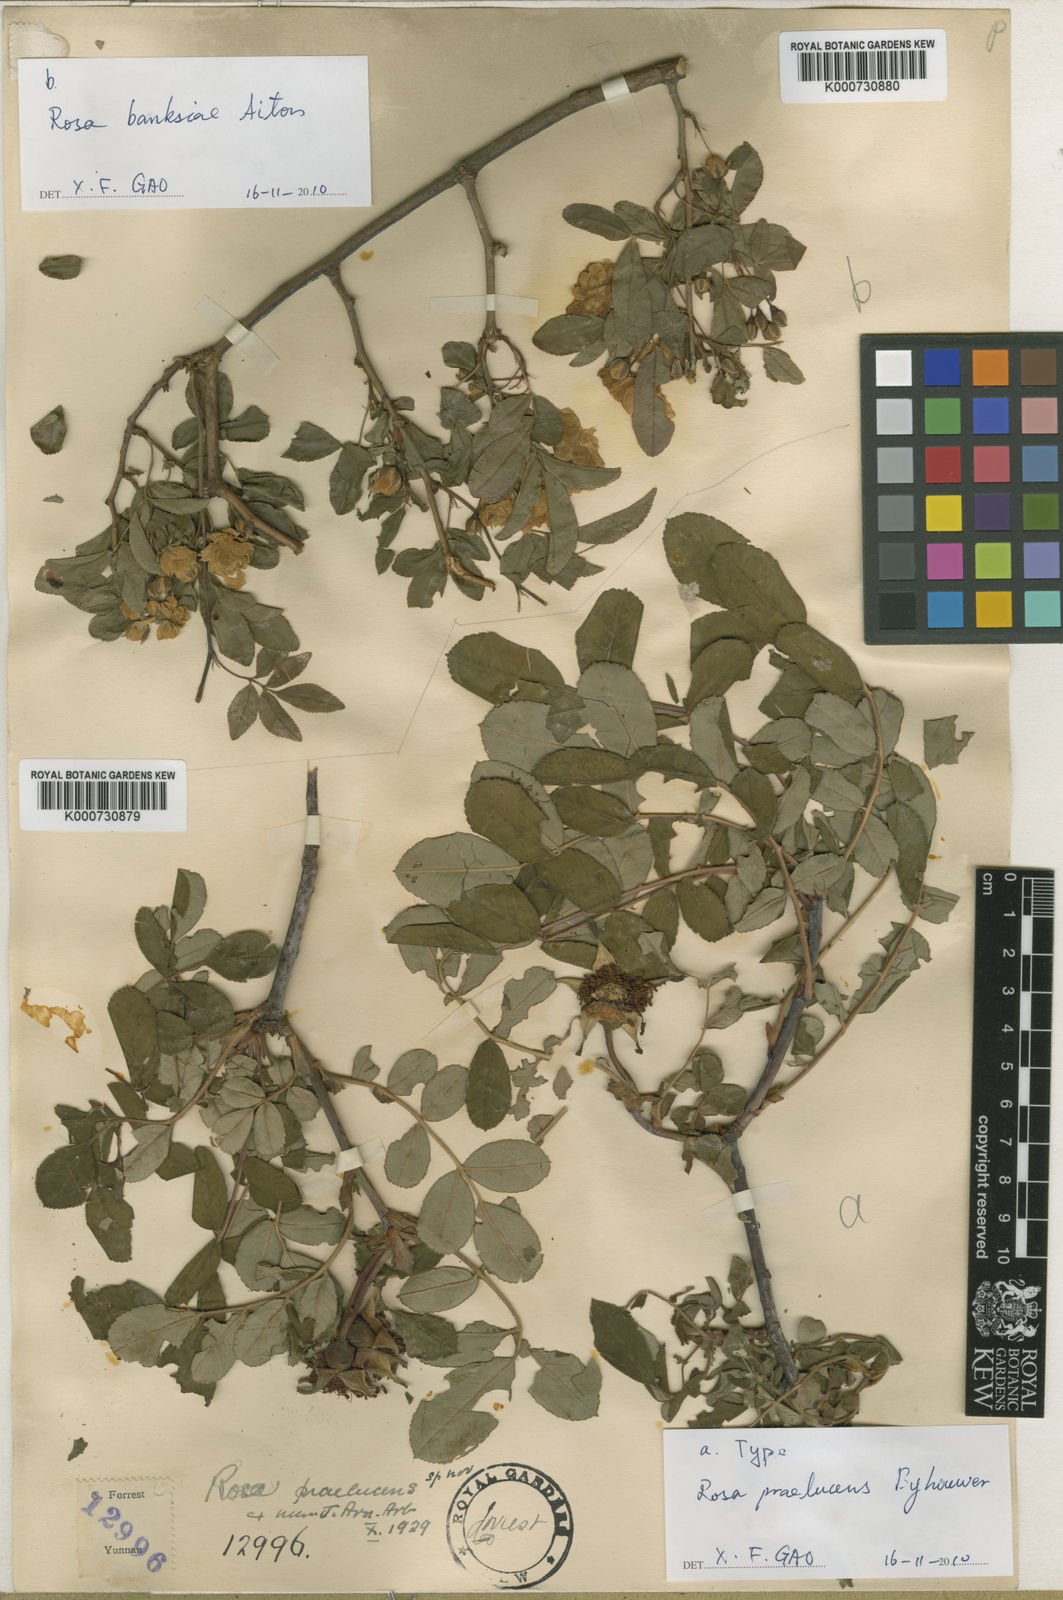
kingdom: Plantae
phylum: Tracheophyta
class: Magnoliopsida
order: Rosales
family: Rosaceae
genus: Rosa
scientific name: Rosa praelucens
